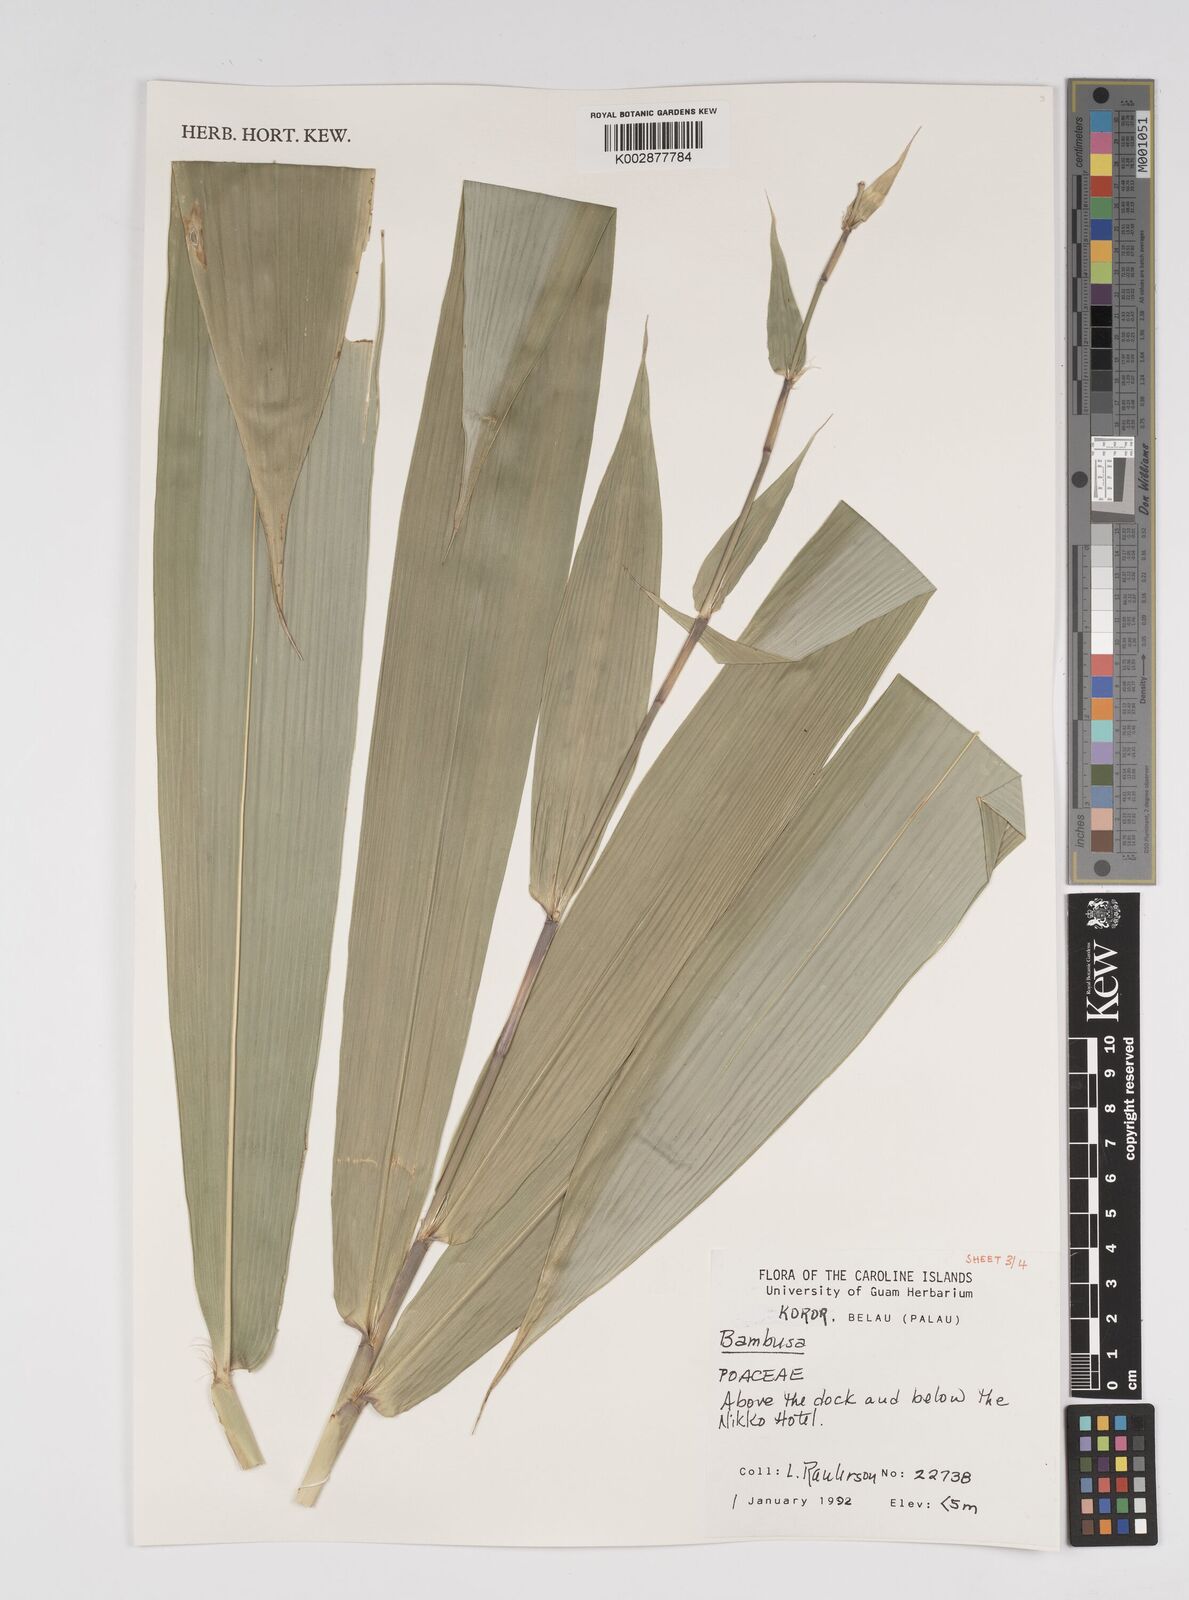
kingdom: Plantae
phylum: Tracheophyta
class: Liliopsida
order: Poales
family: Poaceae
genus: Bambusa
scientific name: Bambusa
